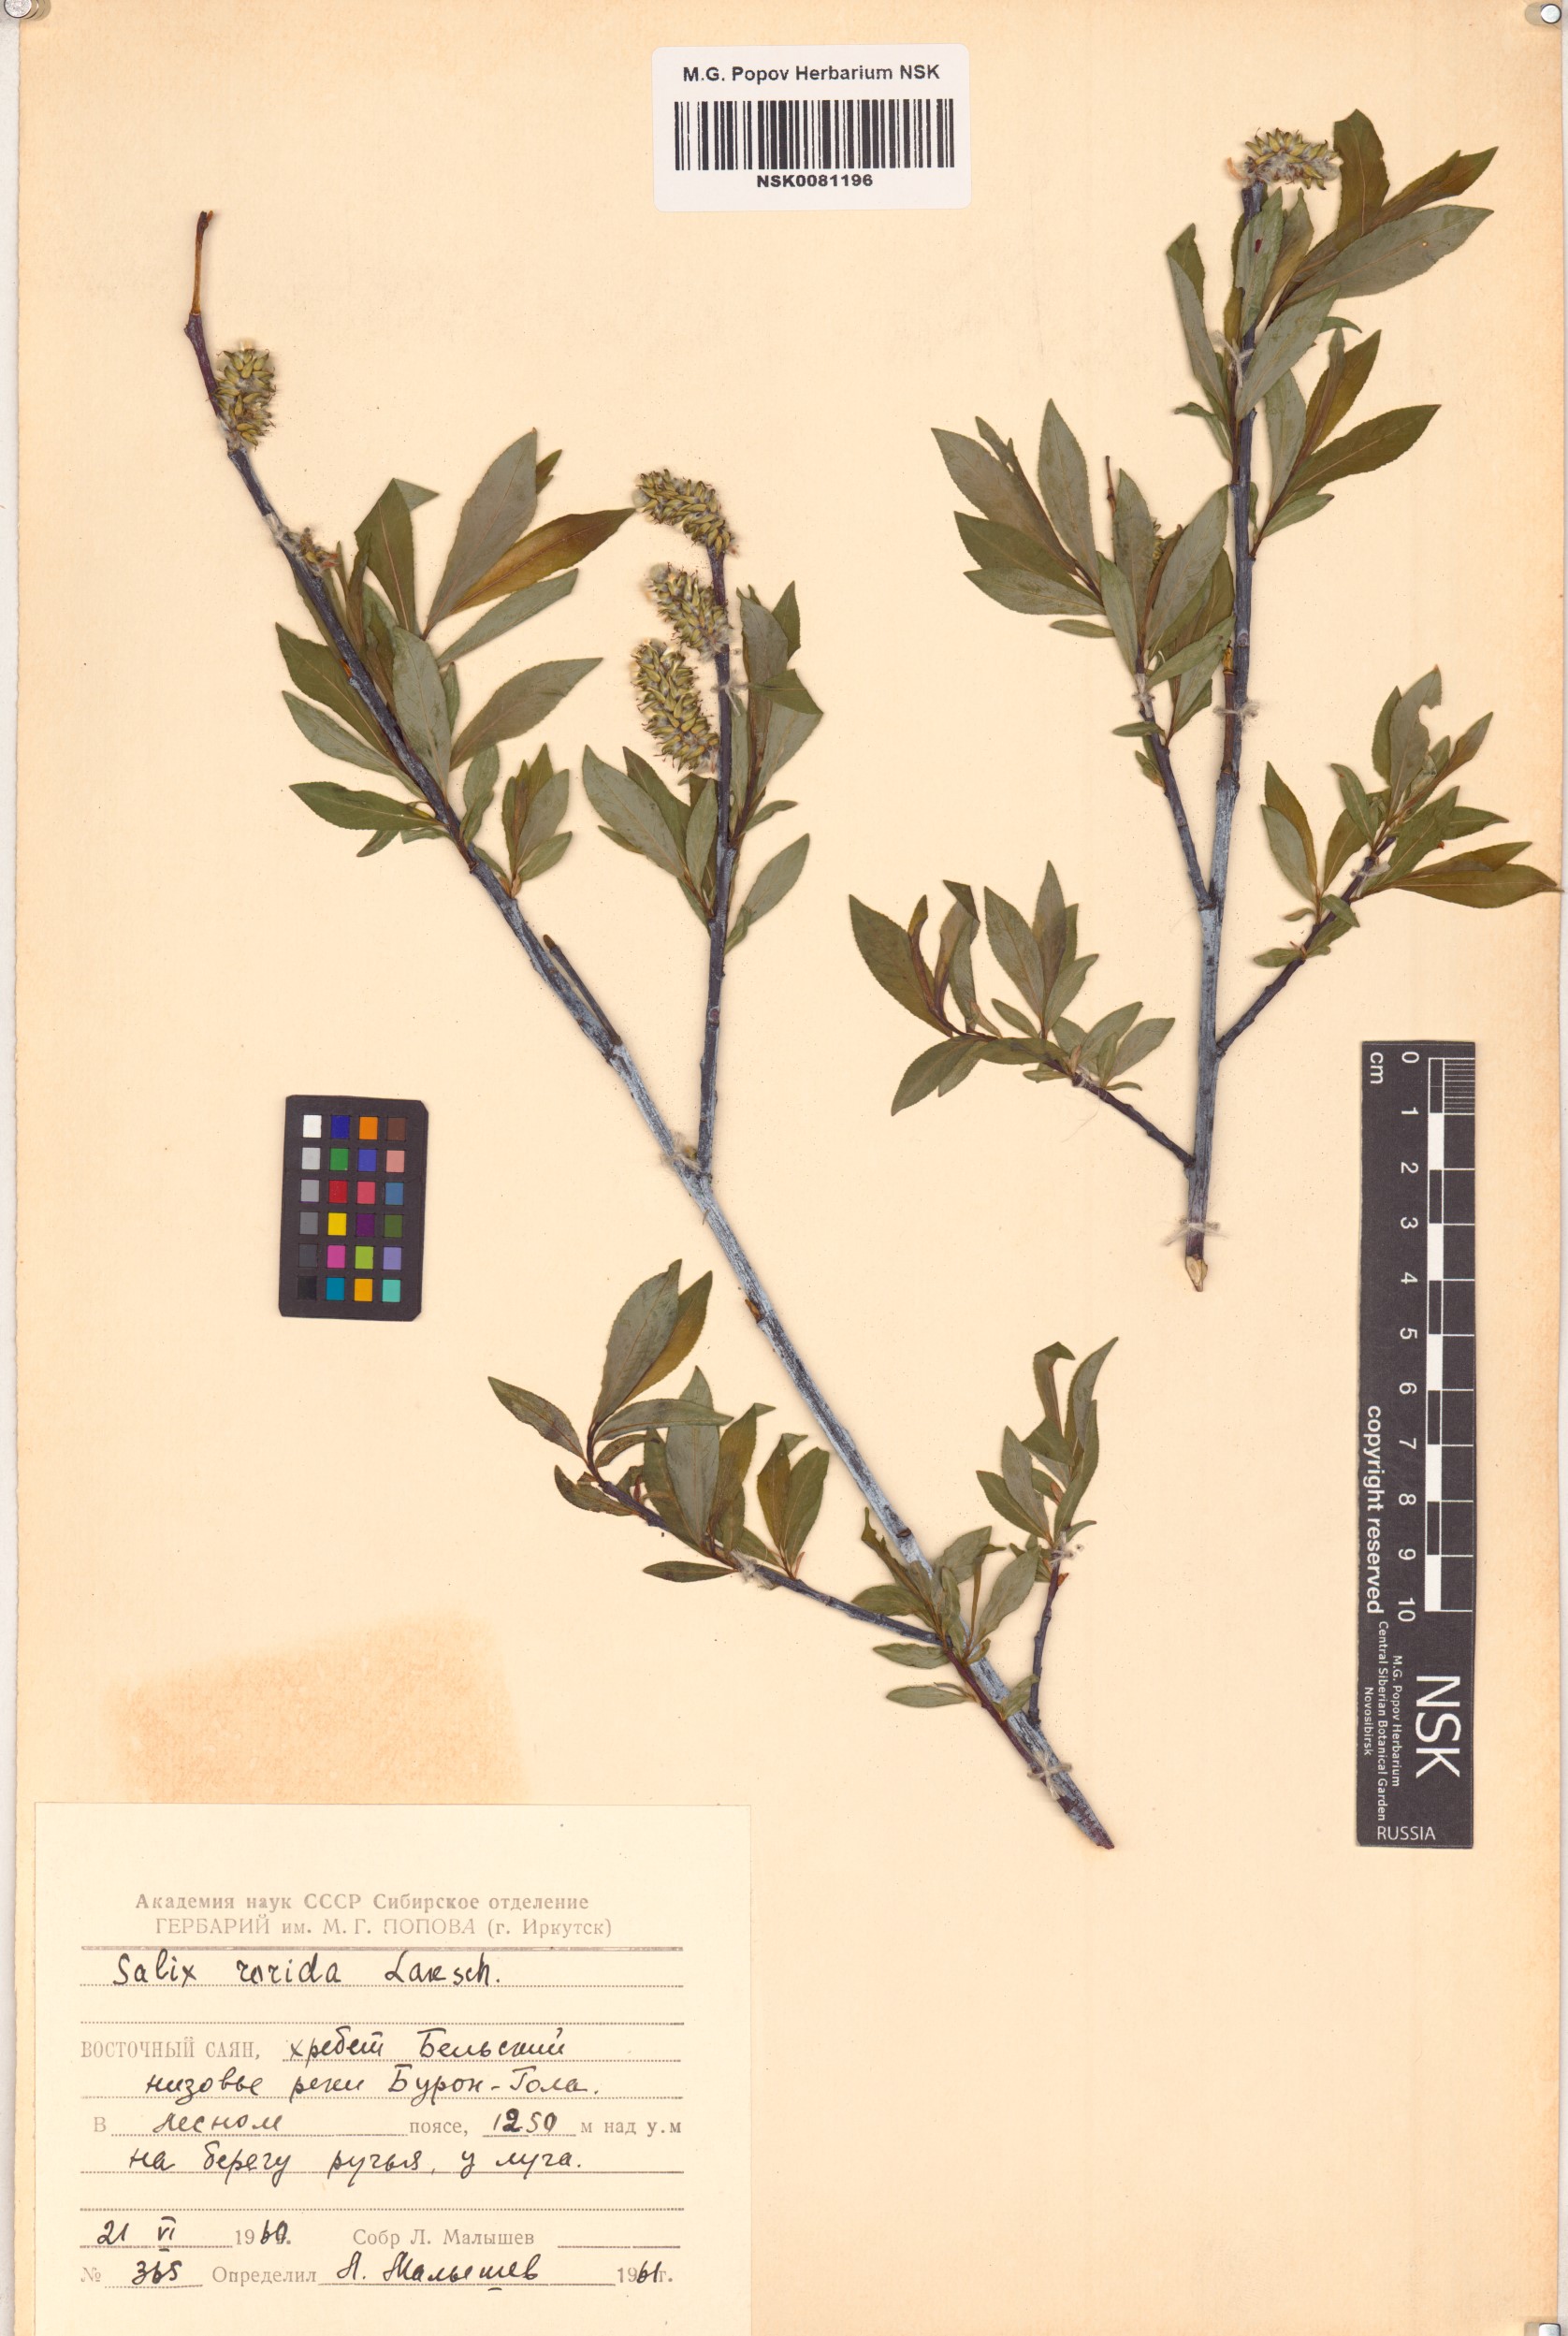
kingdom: Plantae
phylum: Tracheophyta
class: Magnoliopsida
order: Malpighiales
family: Salicaceae
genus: Salix
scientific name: Salix rorida
